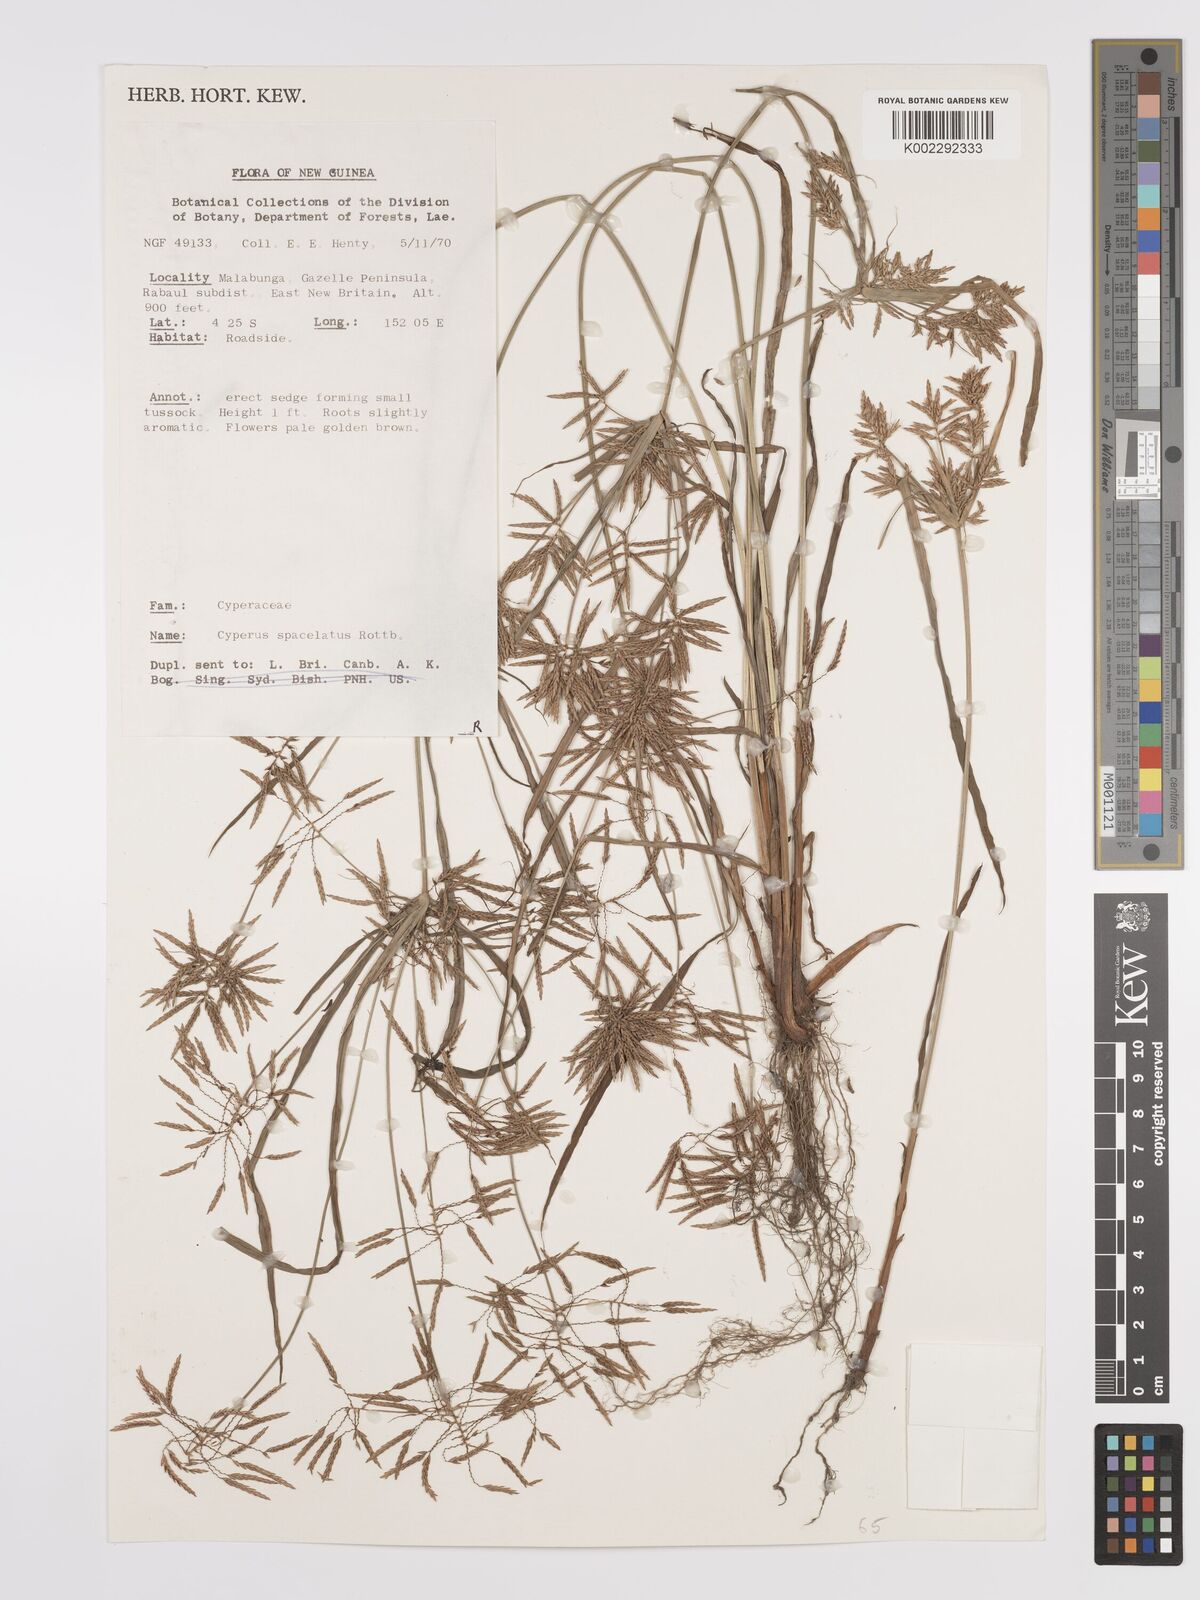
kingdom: Plantae
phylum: Tracheophyta
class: Liliopsida
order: Poales
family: Cyperaceae
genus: Cyperus
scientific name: Cyperus sphacelatus
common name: Roadside flatsedge
